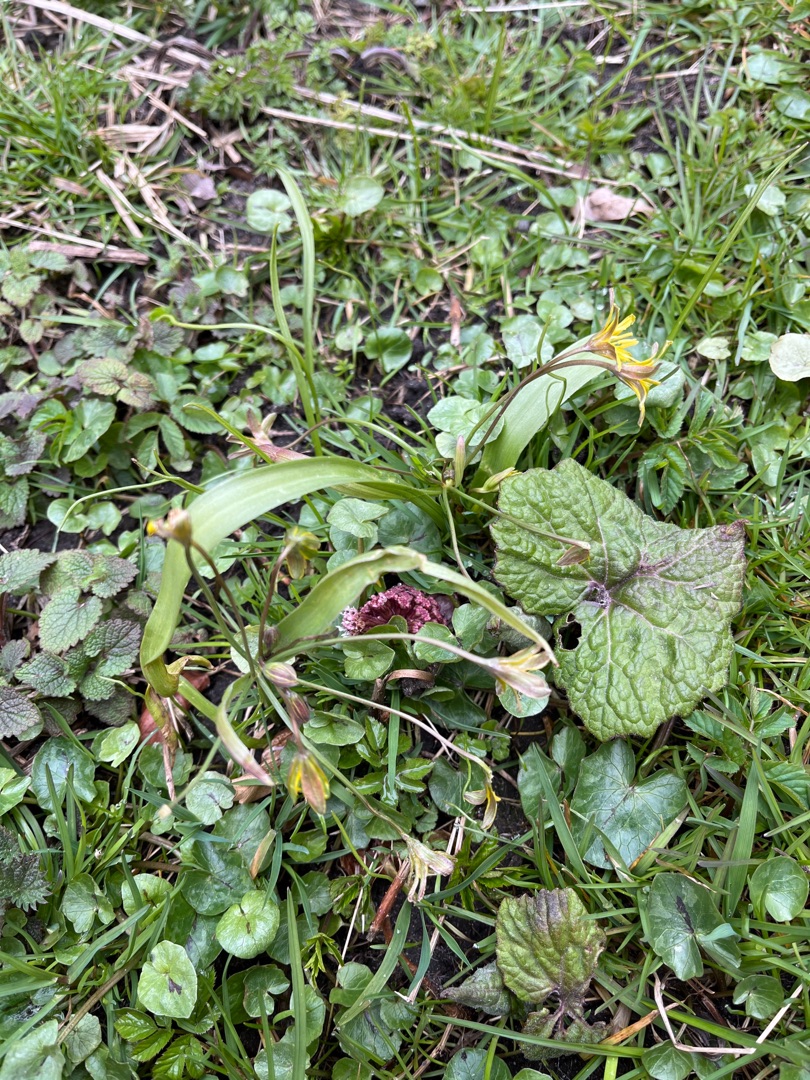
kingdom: Plantae
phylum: Tracheophyta
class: Liliopsida
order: Liliales
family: Liliaceae
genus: Gagea
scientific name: Gagea lutea
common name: Almindelig guldstjerne
